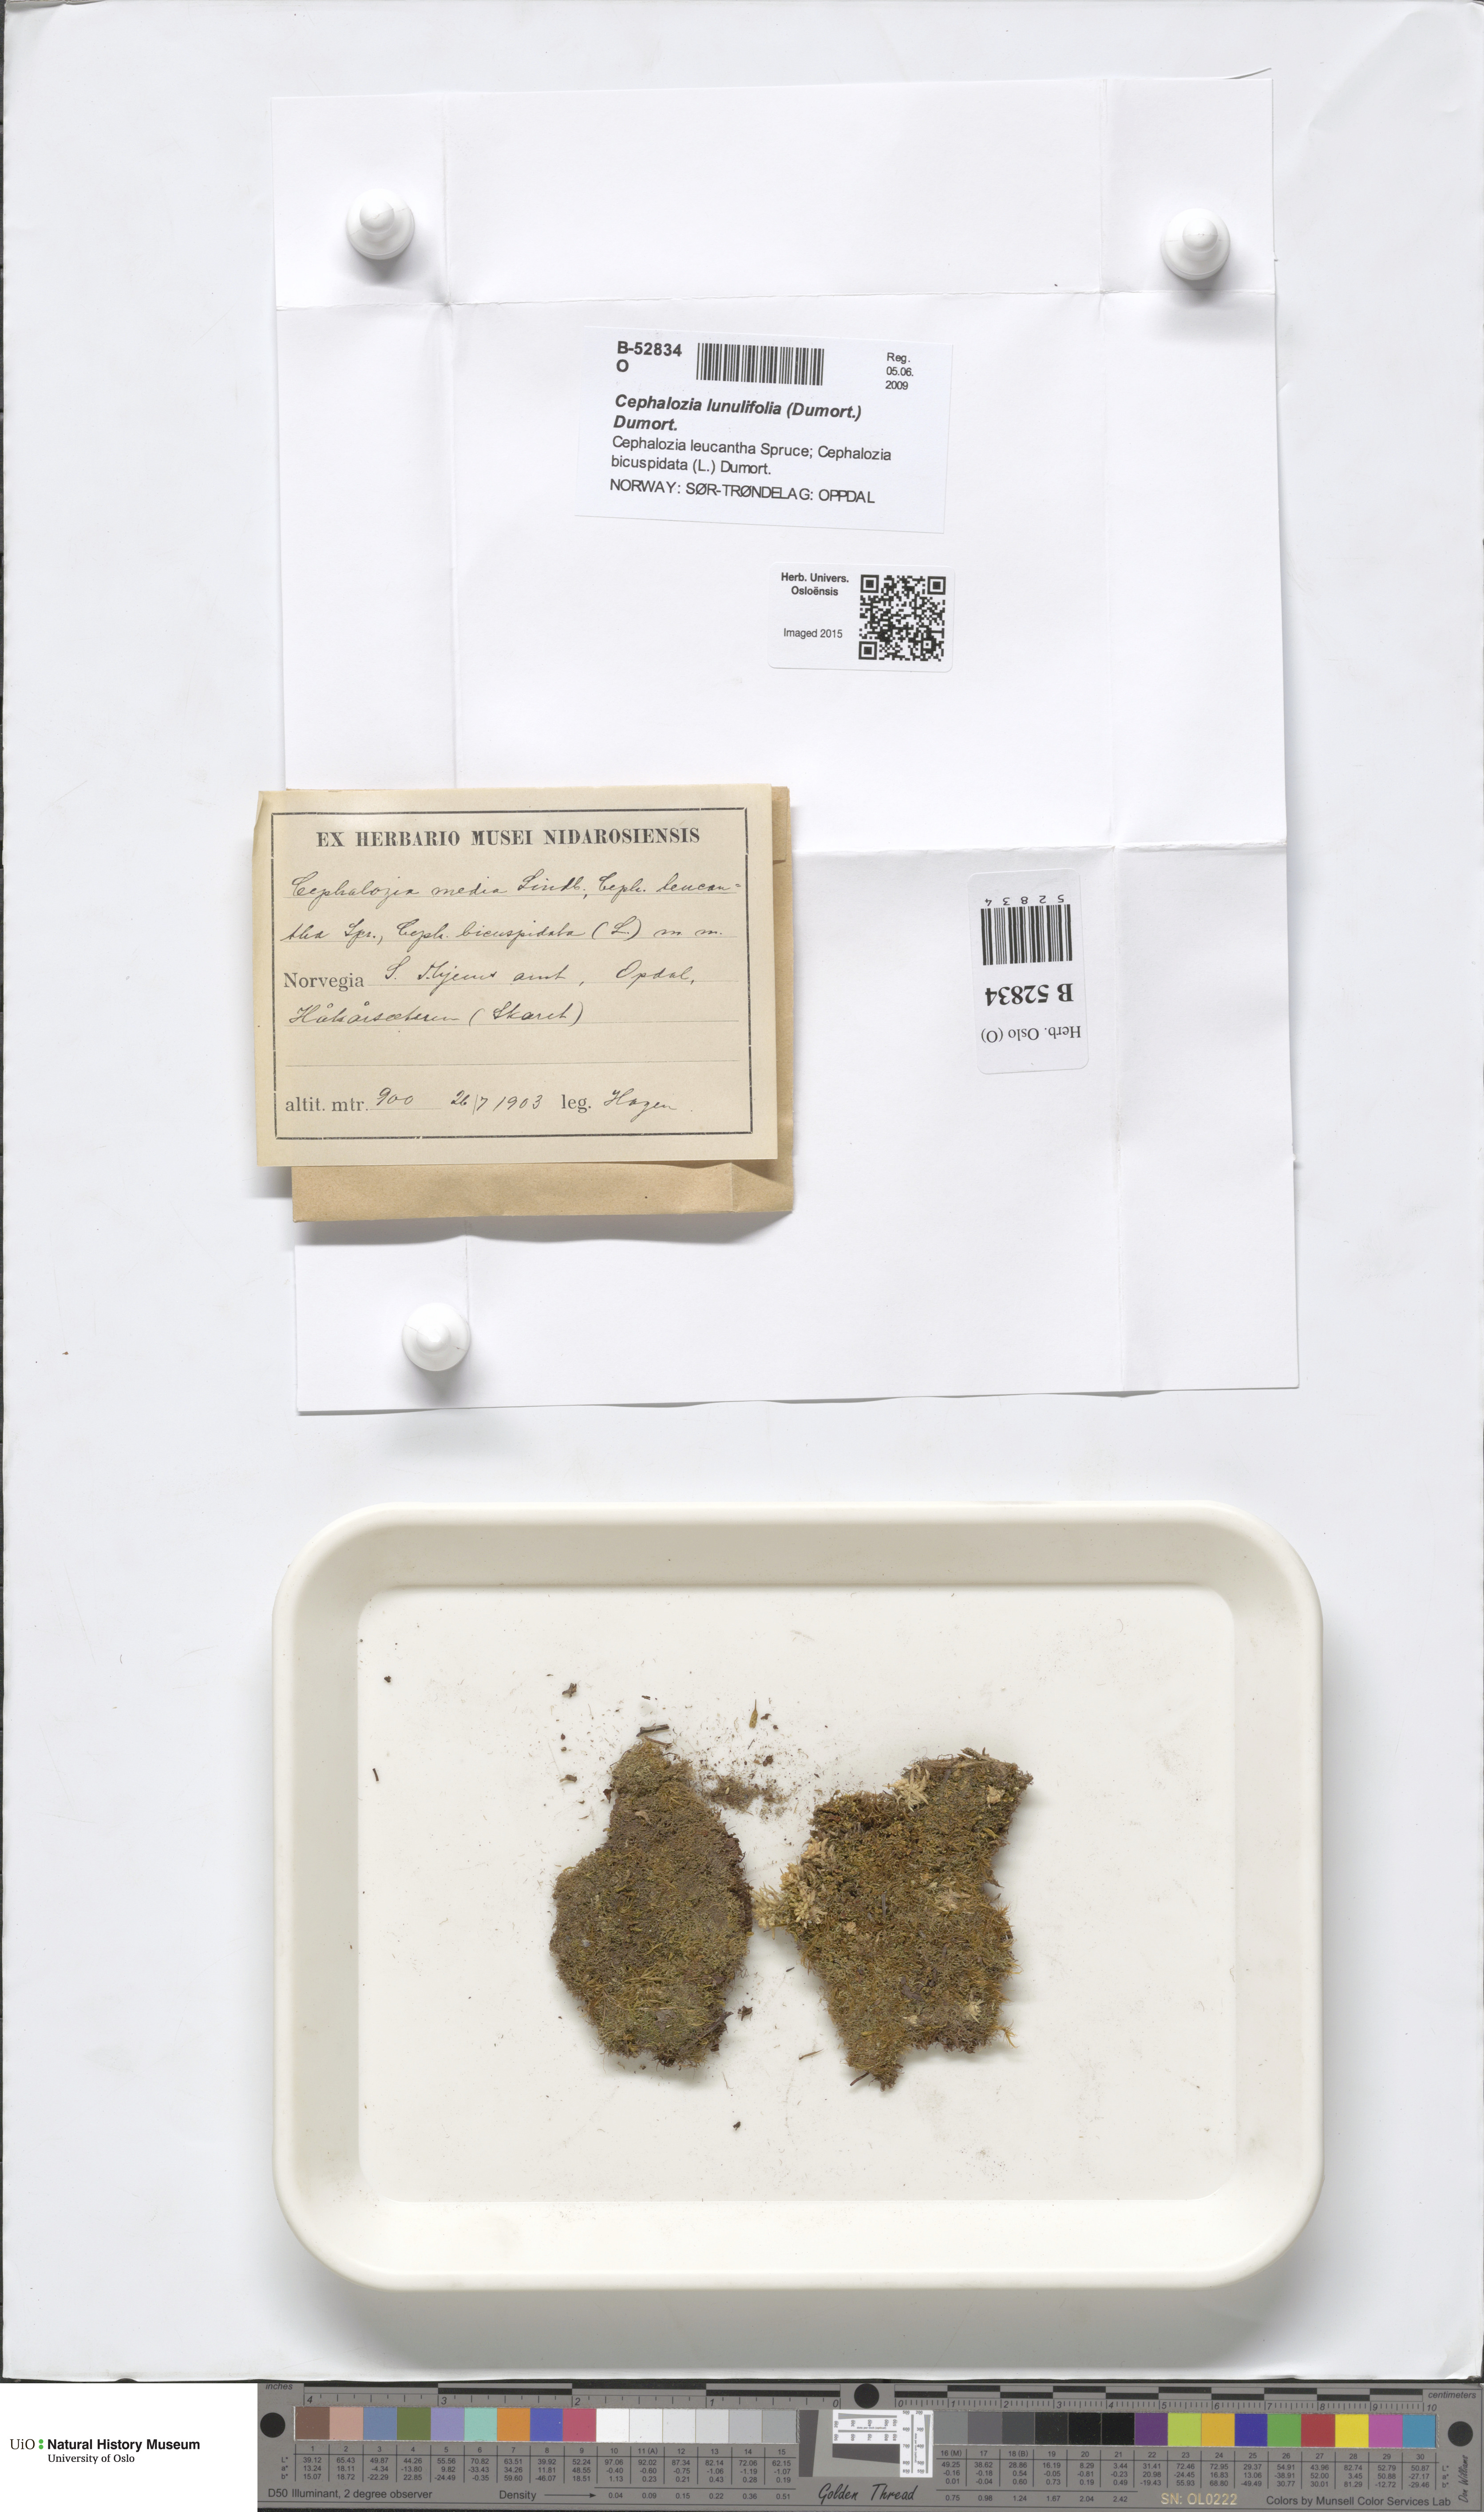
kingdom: Plantae
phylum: Marchantiophyta
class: Jungermanniopsida
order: Jungermanniales
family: Cephaloziaceae
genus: Fuscocephaloziopsis
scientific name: Fuscocephaloziopsis lunulifolia
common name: Moon-leaved pincerwort
